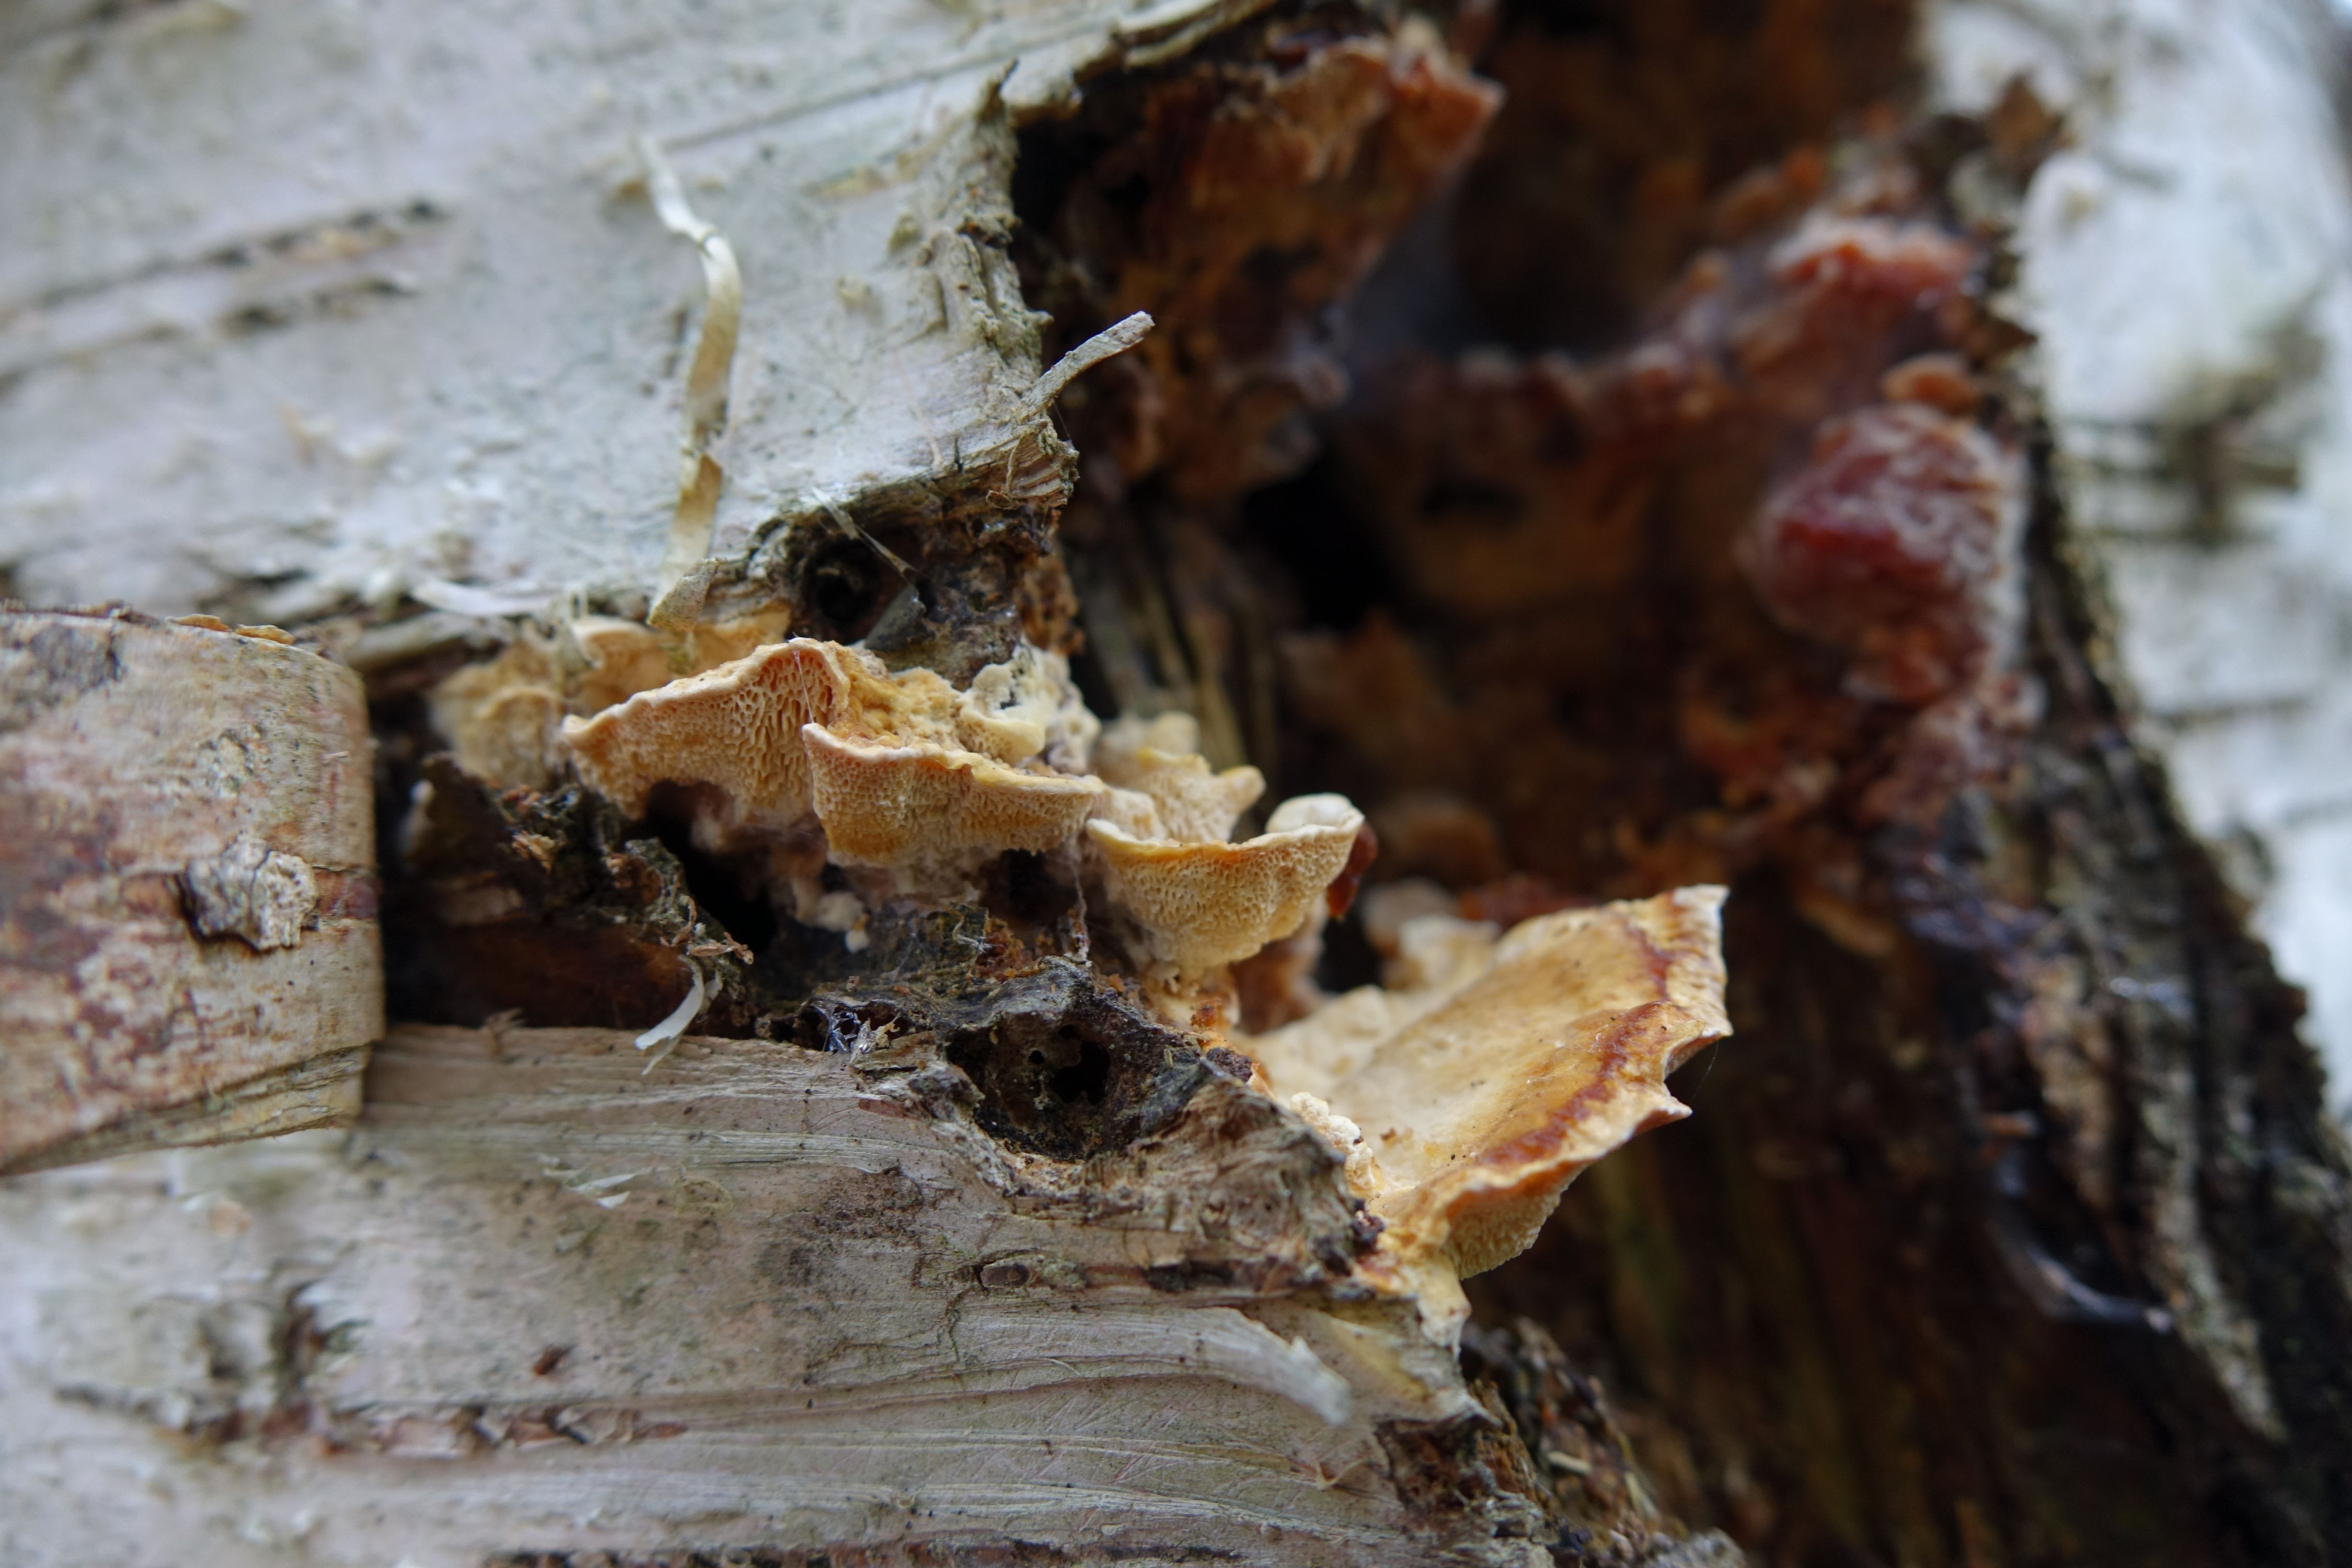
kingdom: Fungi
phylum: Basidiomycota
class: Agaricomycetes
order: Polyporales
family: Steccherinaceae
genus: Antrodiella
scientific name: Antrodiella pallescens
